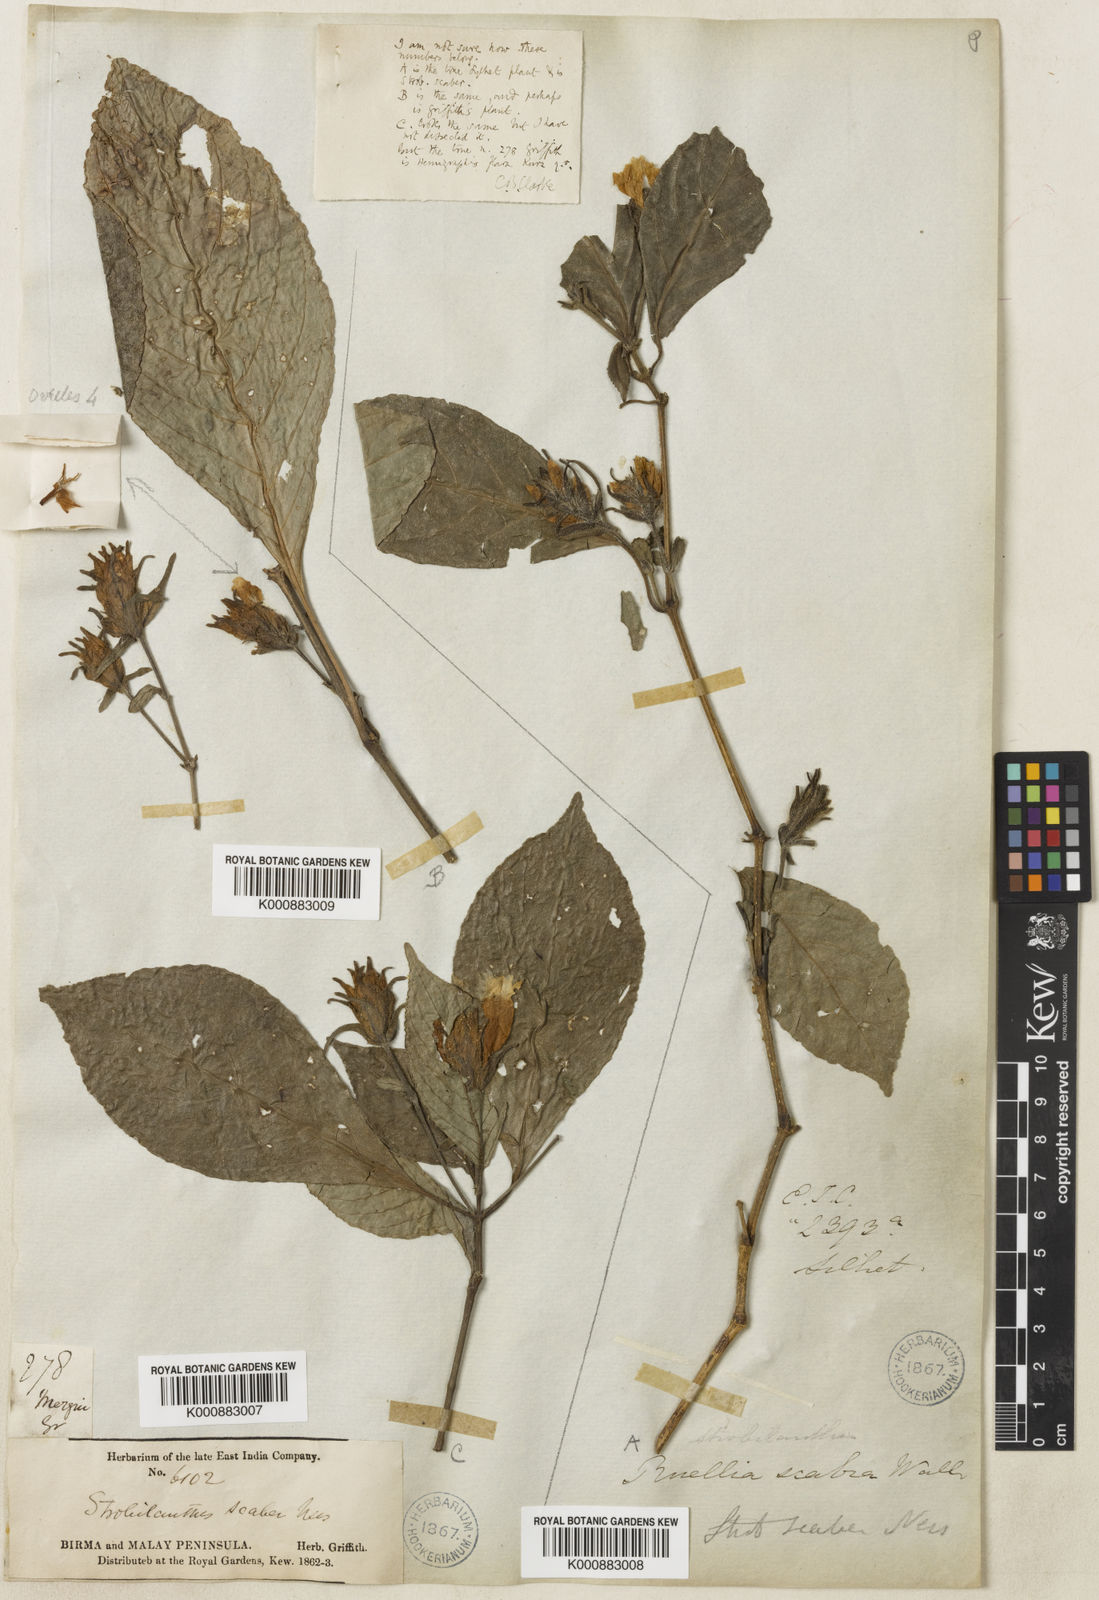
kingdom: Plantae
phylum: Tracheophyta
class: Magnoliopsida
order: Lamiales
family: Acanthaceae
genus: Strobilanthes
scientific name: Strobilanthes
